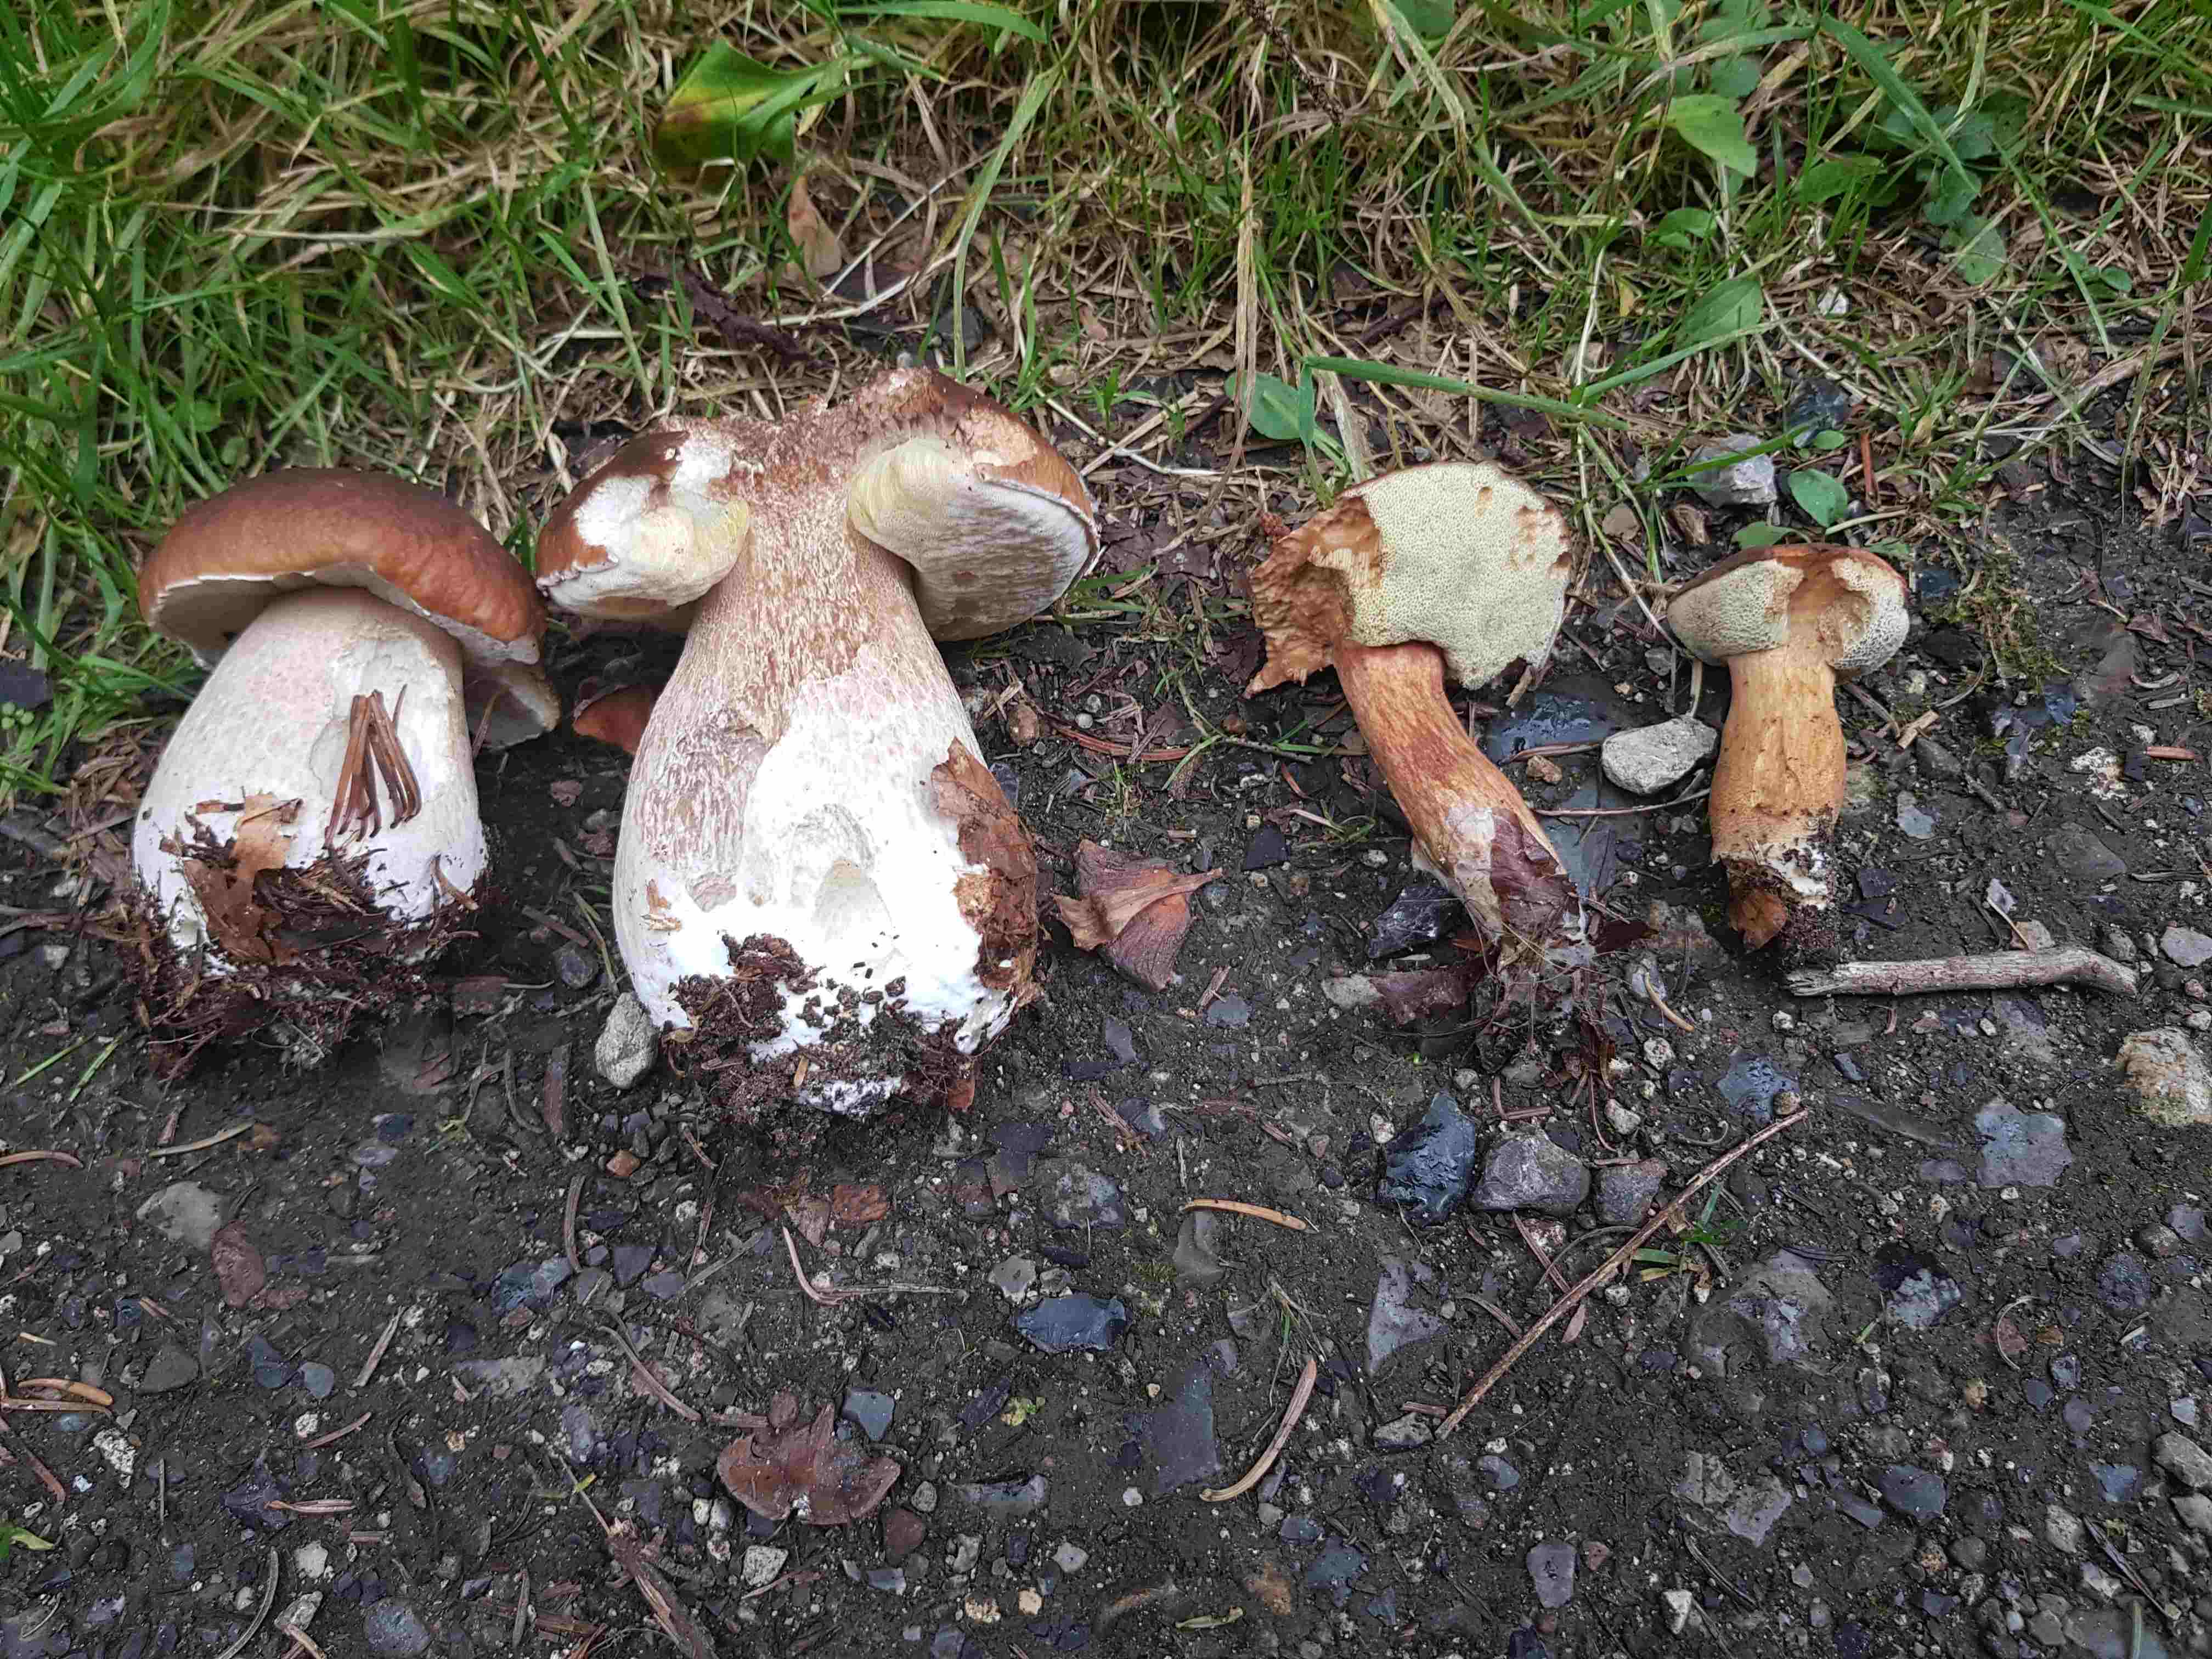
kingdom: Fungi
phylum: Basidiomycota
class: Agaricomycetes
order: Boletales
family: Boletaceae
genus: Boletus
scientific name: Boletus edulis
